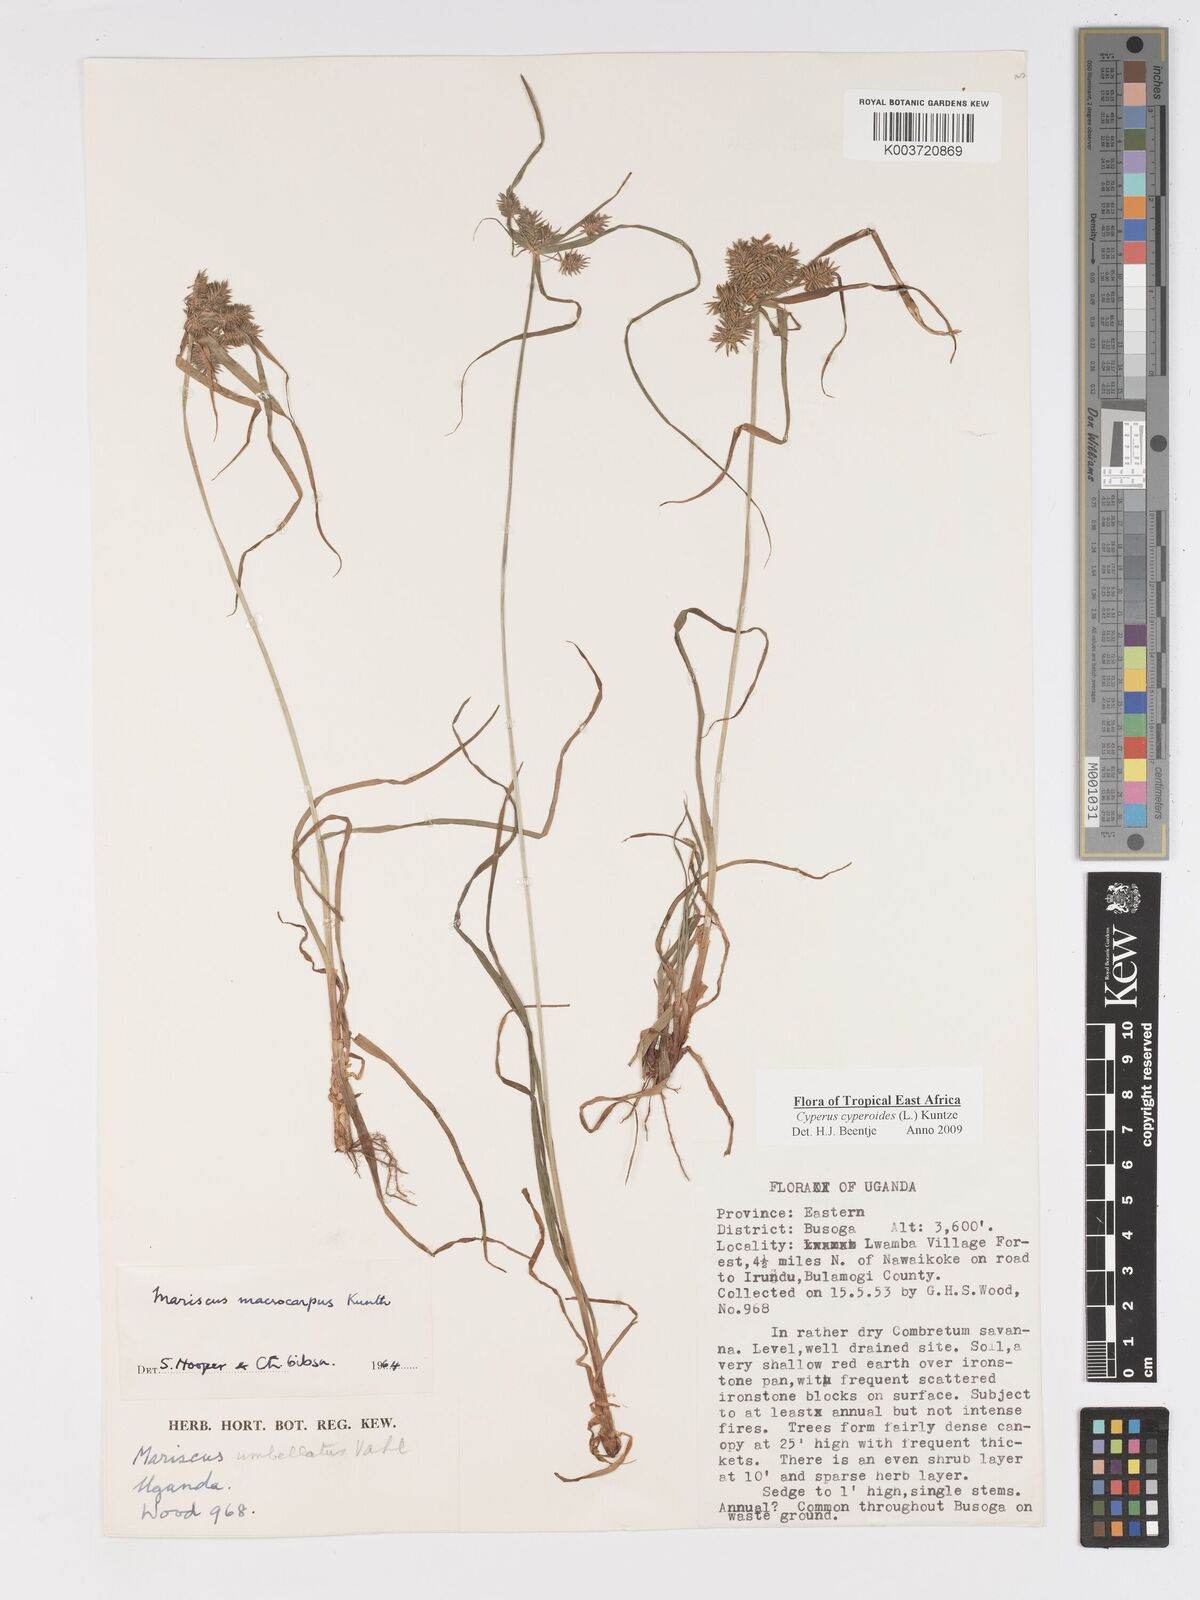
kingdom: Plantae
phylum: Tracheophyta
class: Liliopsida
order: Poales
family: Cyperaceae
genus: Cyperus
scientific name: Cyperus macrocarpus
